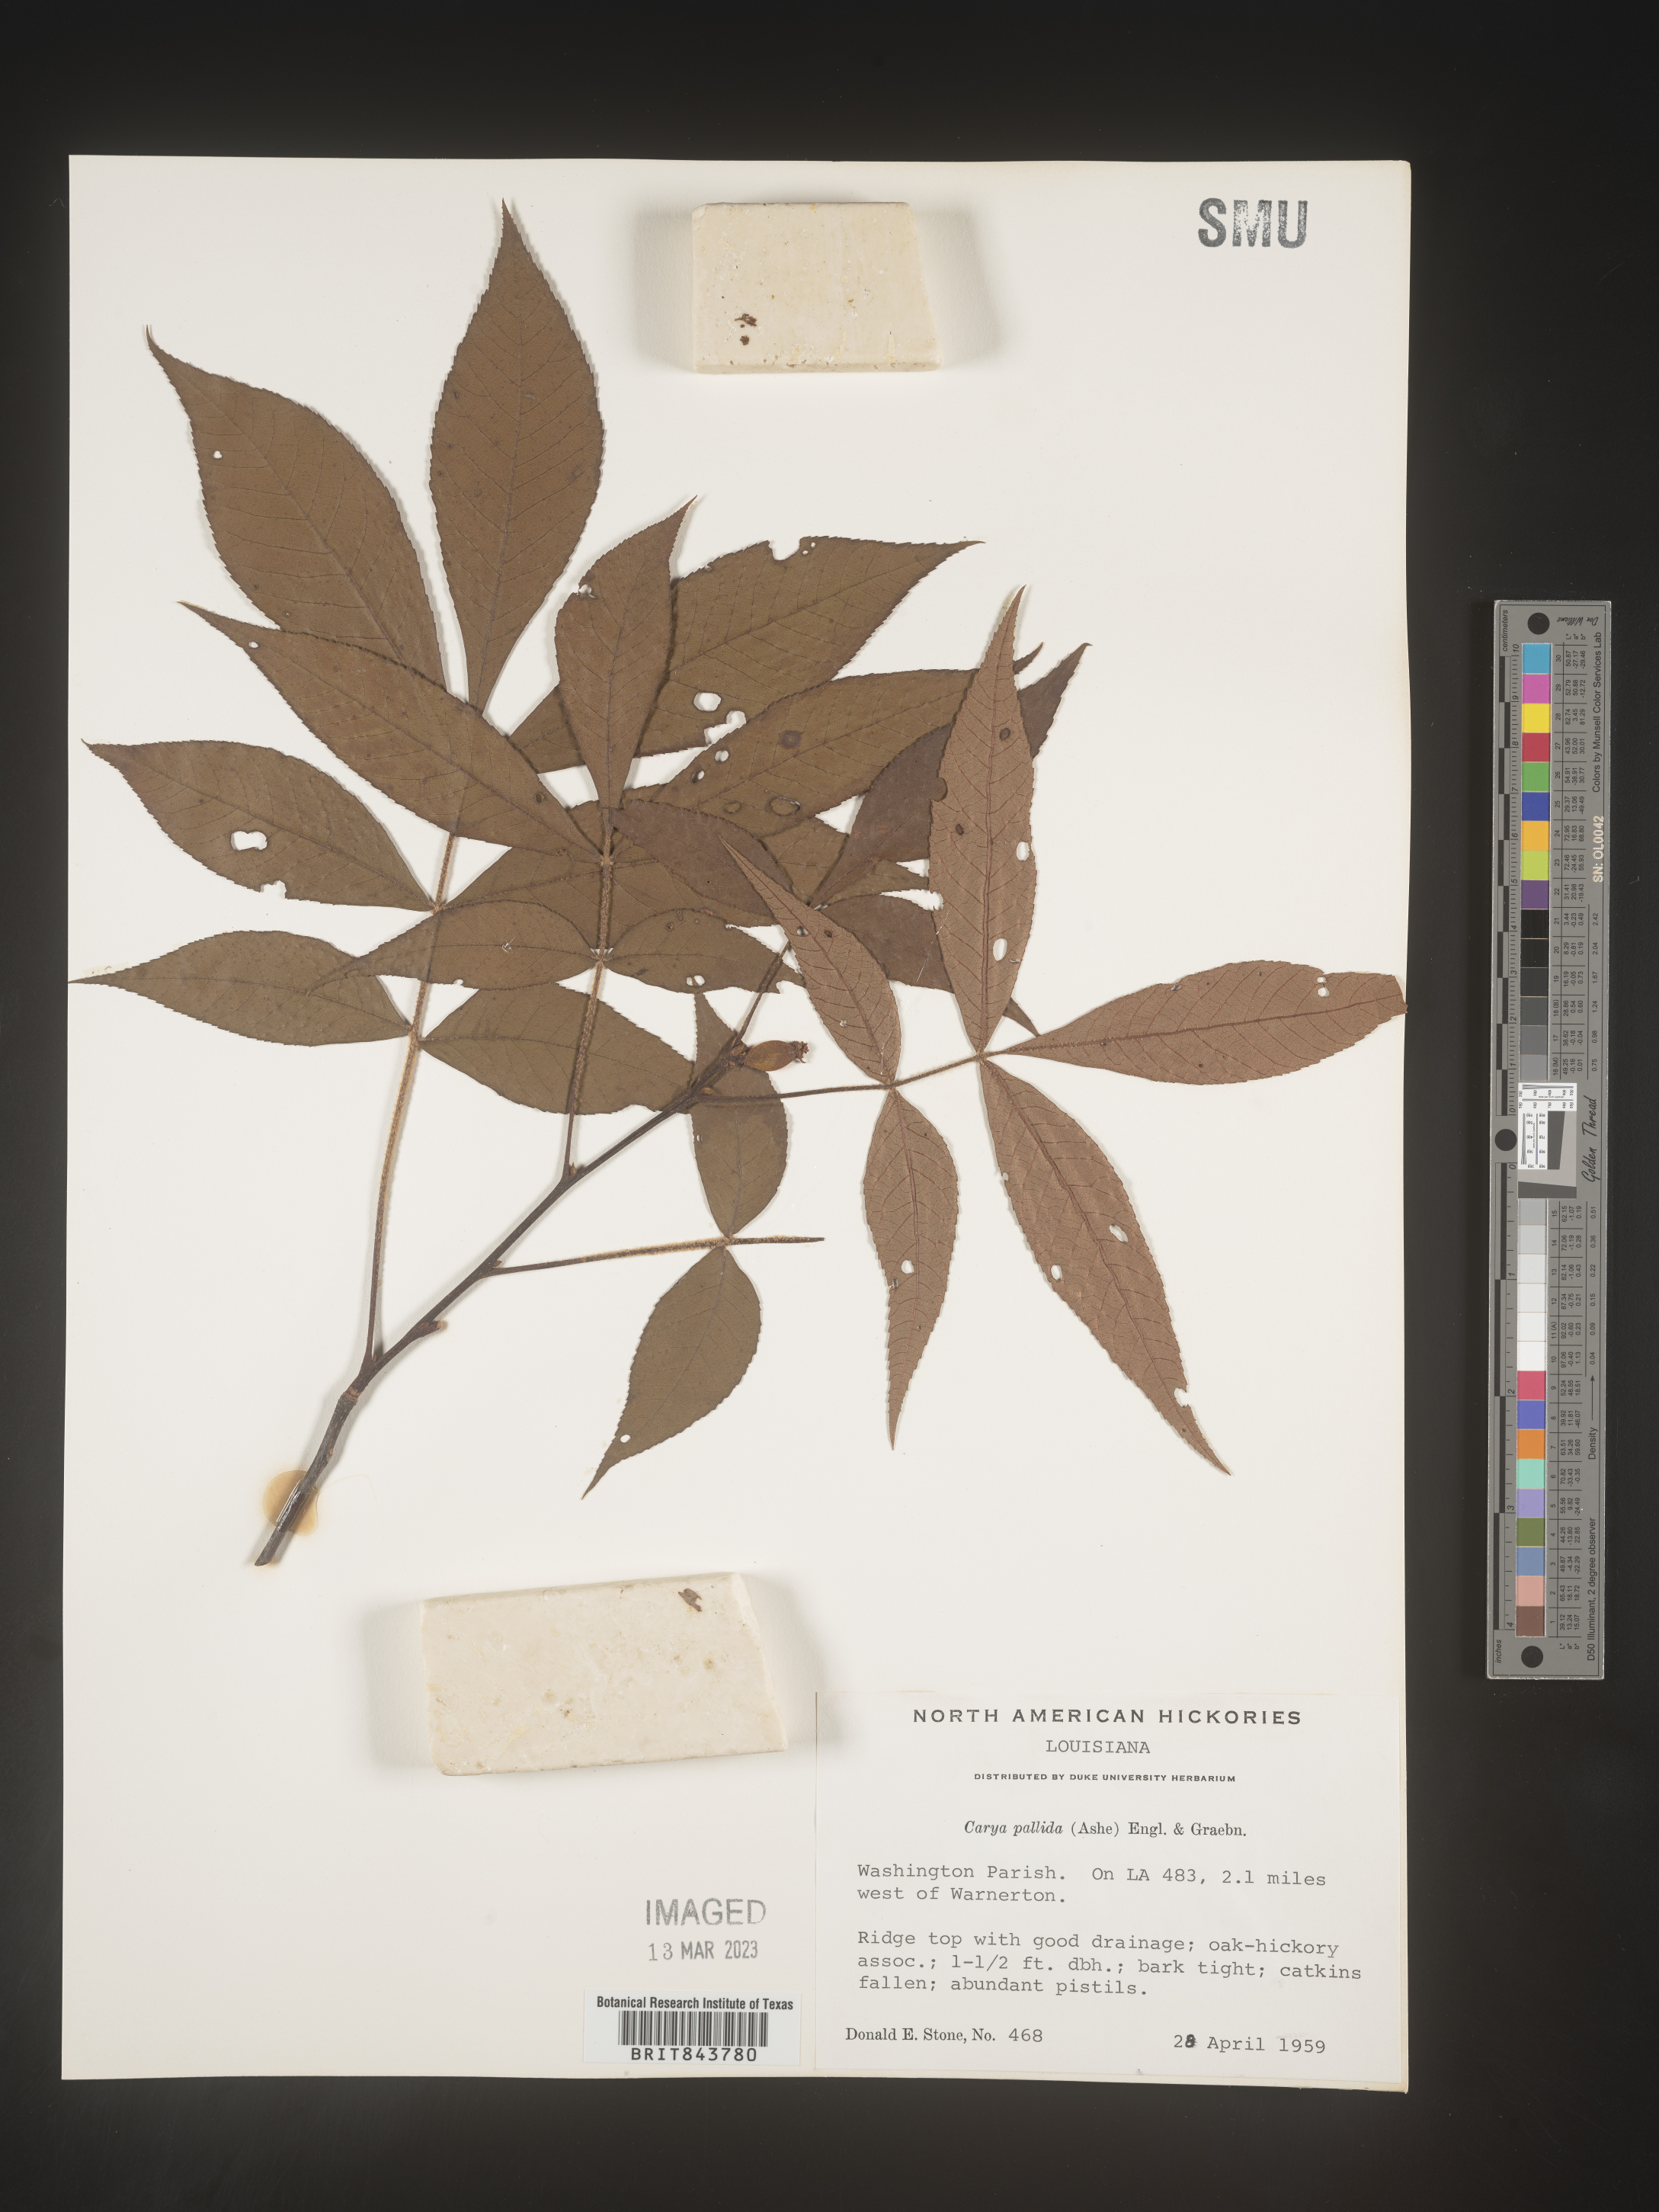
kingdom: Plantae
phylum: Tracheophyta
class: Magnoliopsida
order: Fagales
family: Juglandaceae
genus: Carya
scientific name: Carya pallida
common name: Sand hickory
